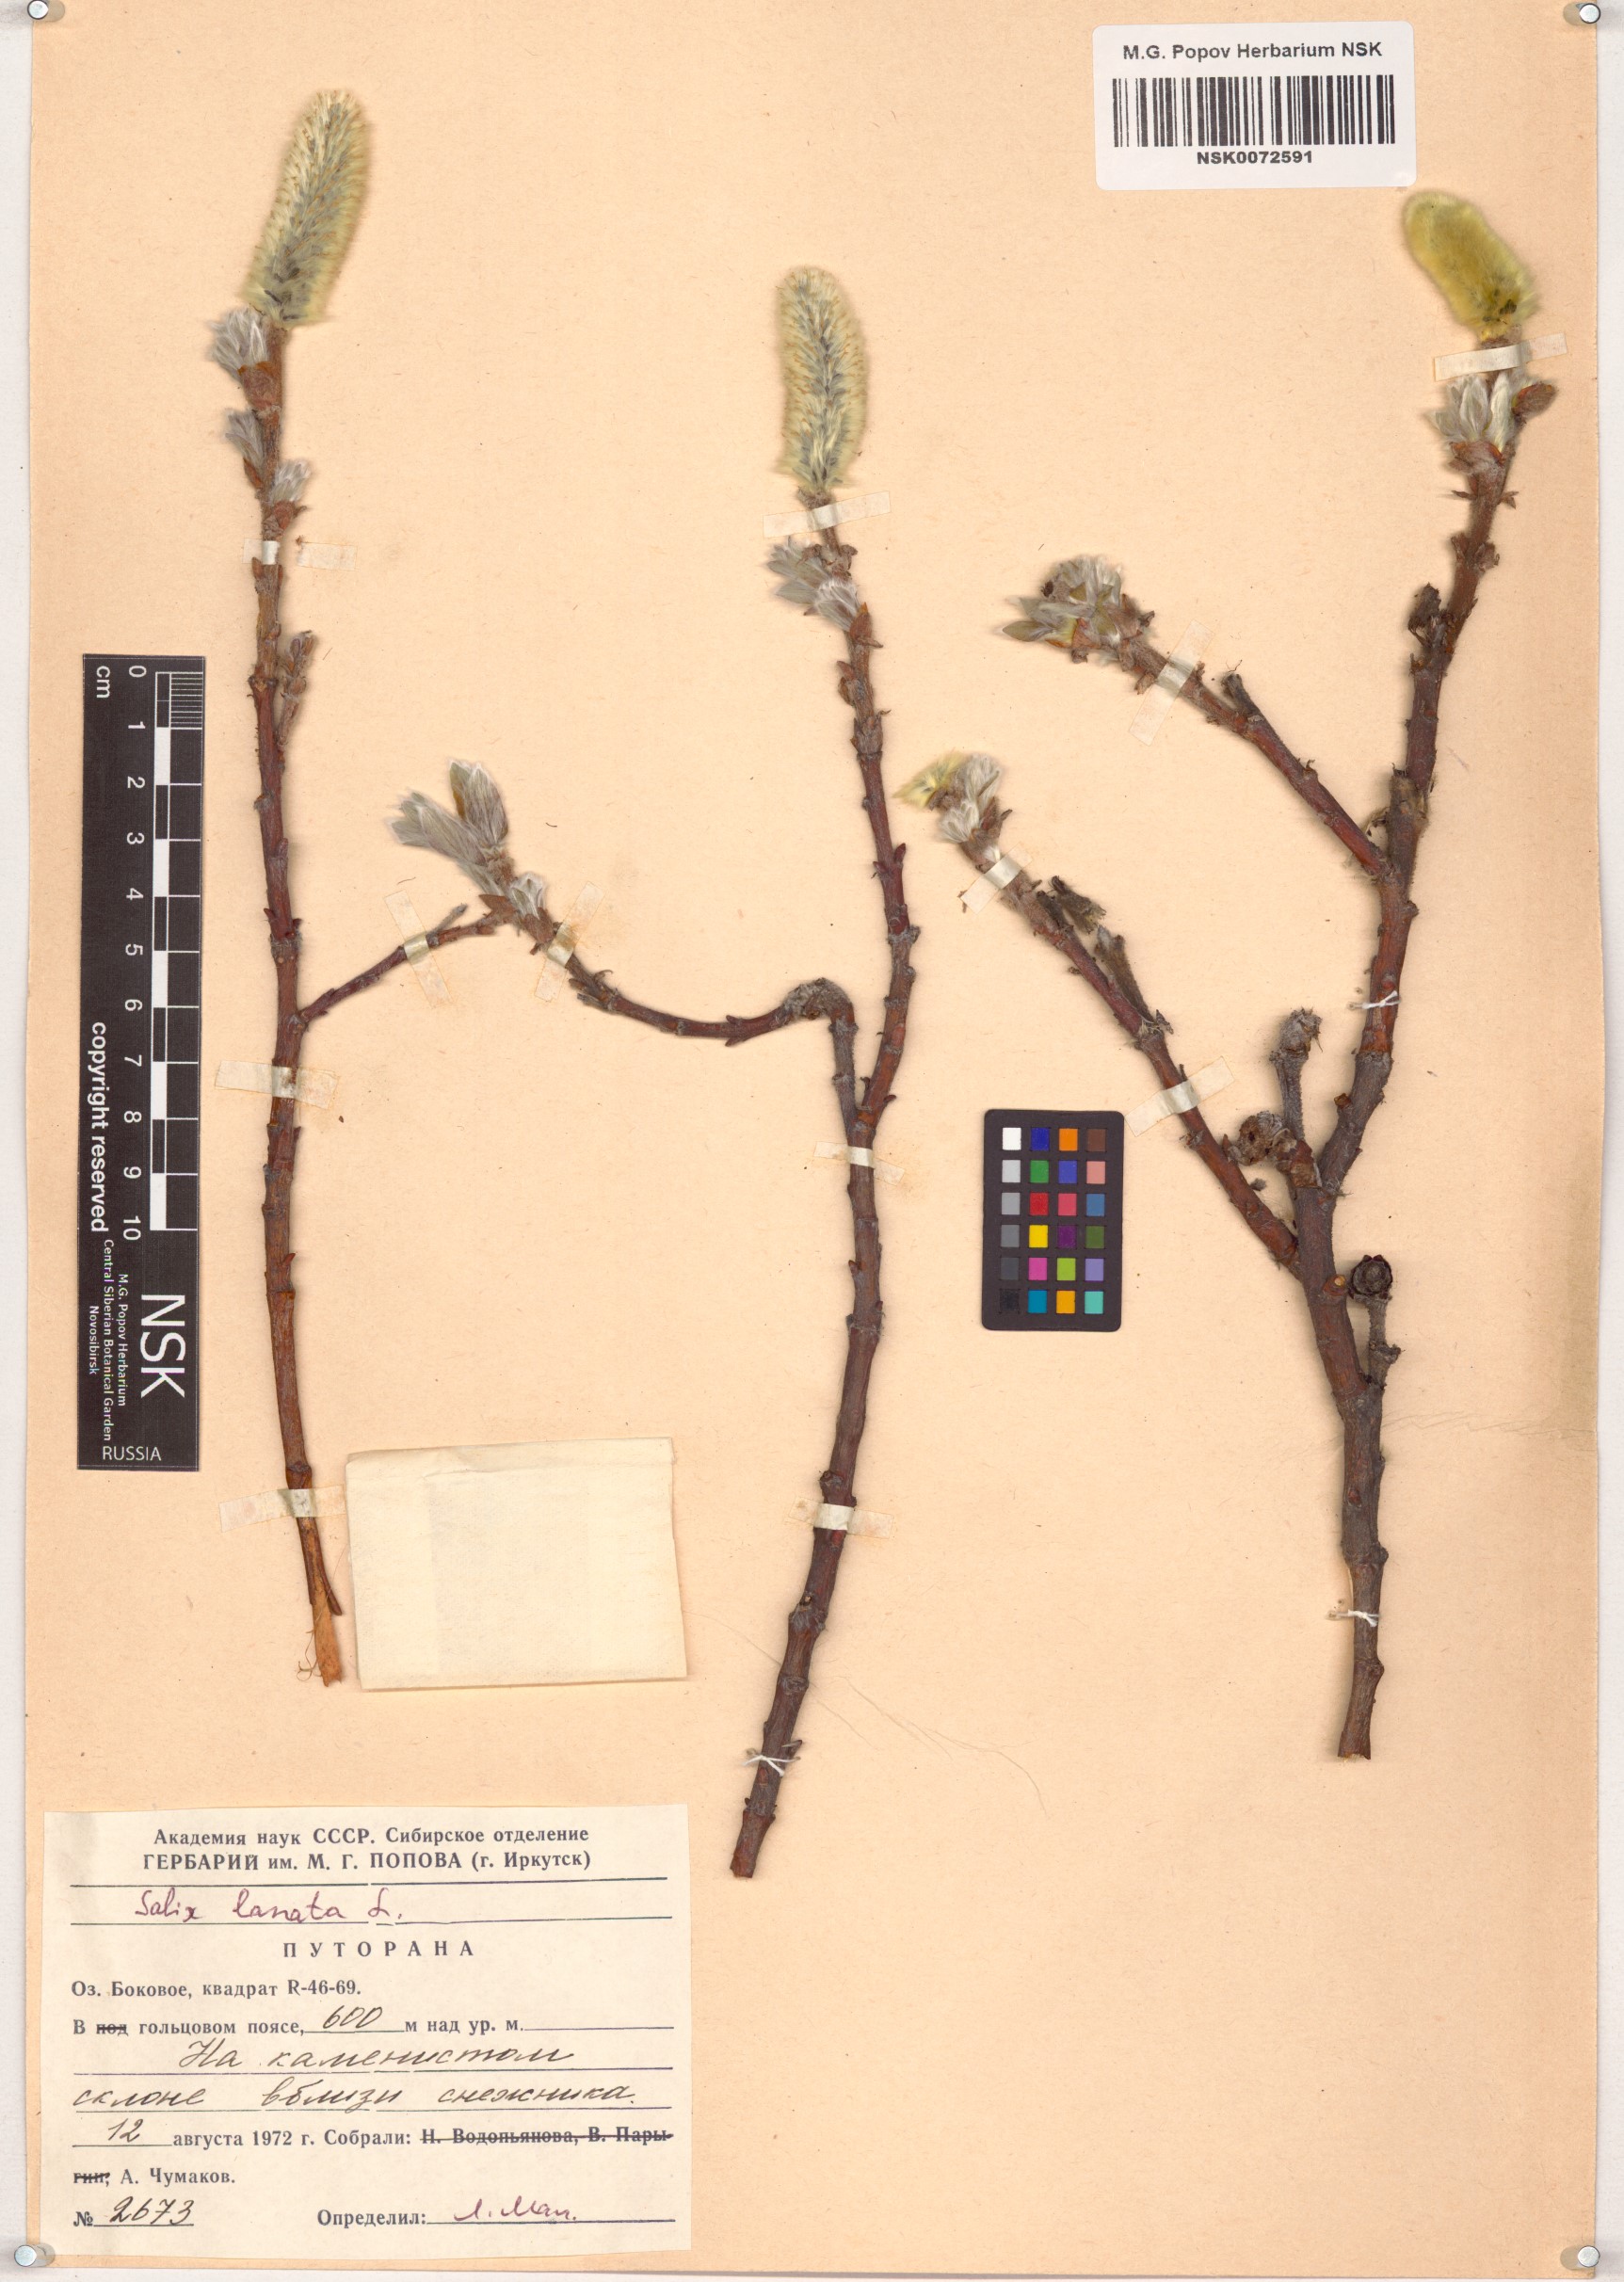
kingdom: Plantae
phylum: Tracheophyta
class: Magnoliopsida
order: Malpighiales
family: Salicaceae
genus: Salix
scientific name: Salix lanata
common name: Woolly willow
